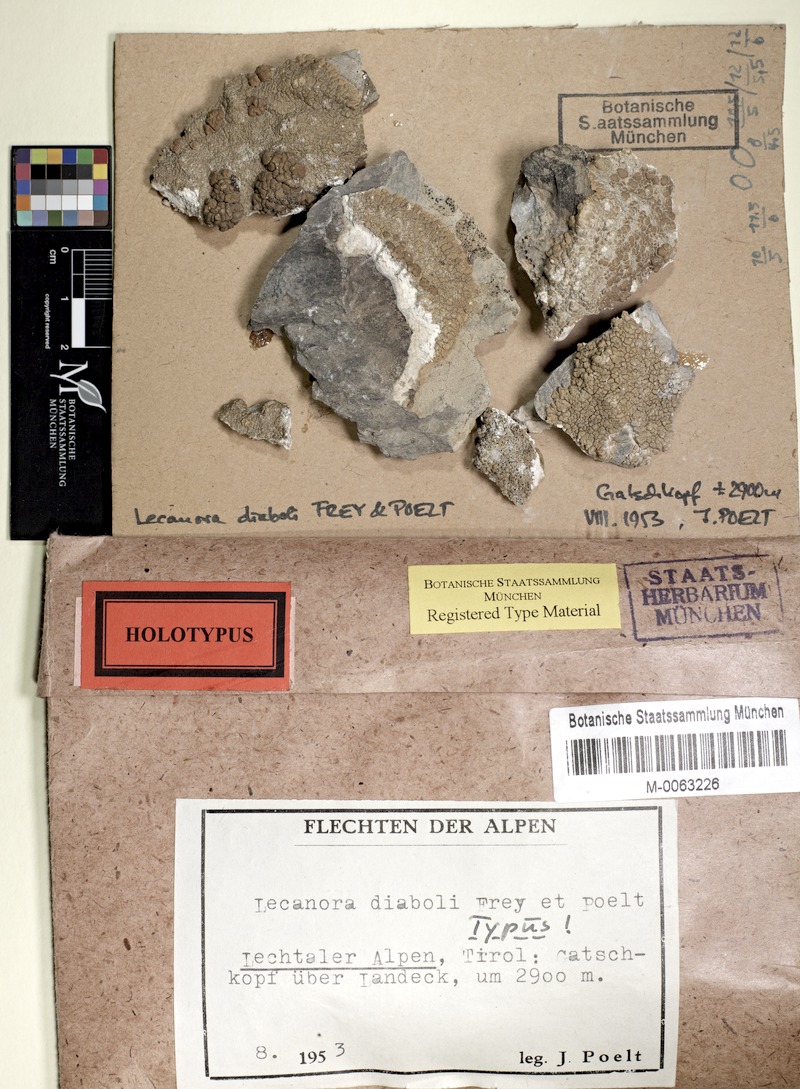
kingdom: Fungi
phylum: Ascomycota
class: Lecanoromycetes
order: Lecanorales
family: Lecanoraceae
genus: Lecanora
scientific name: Lecanora diaboli
